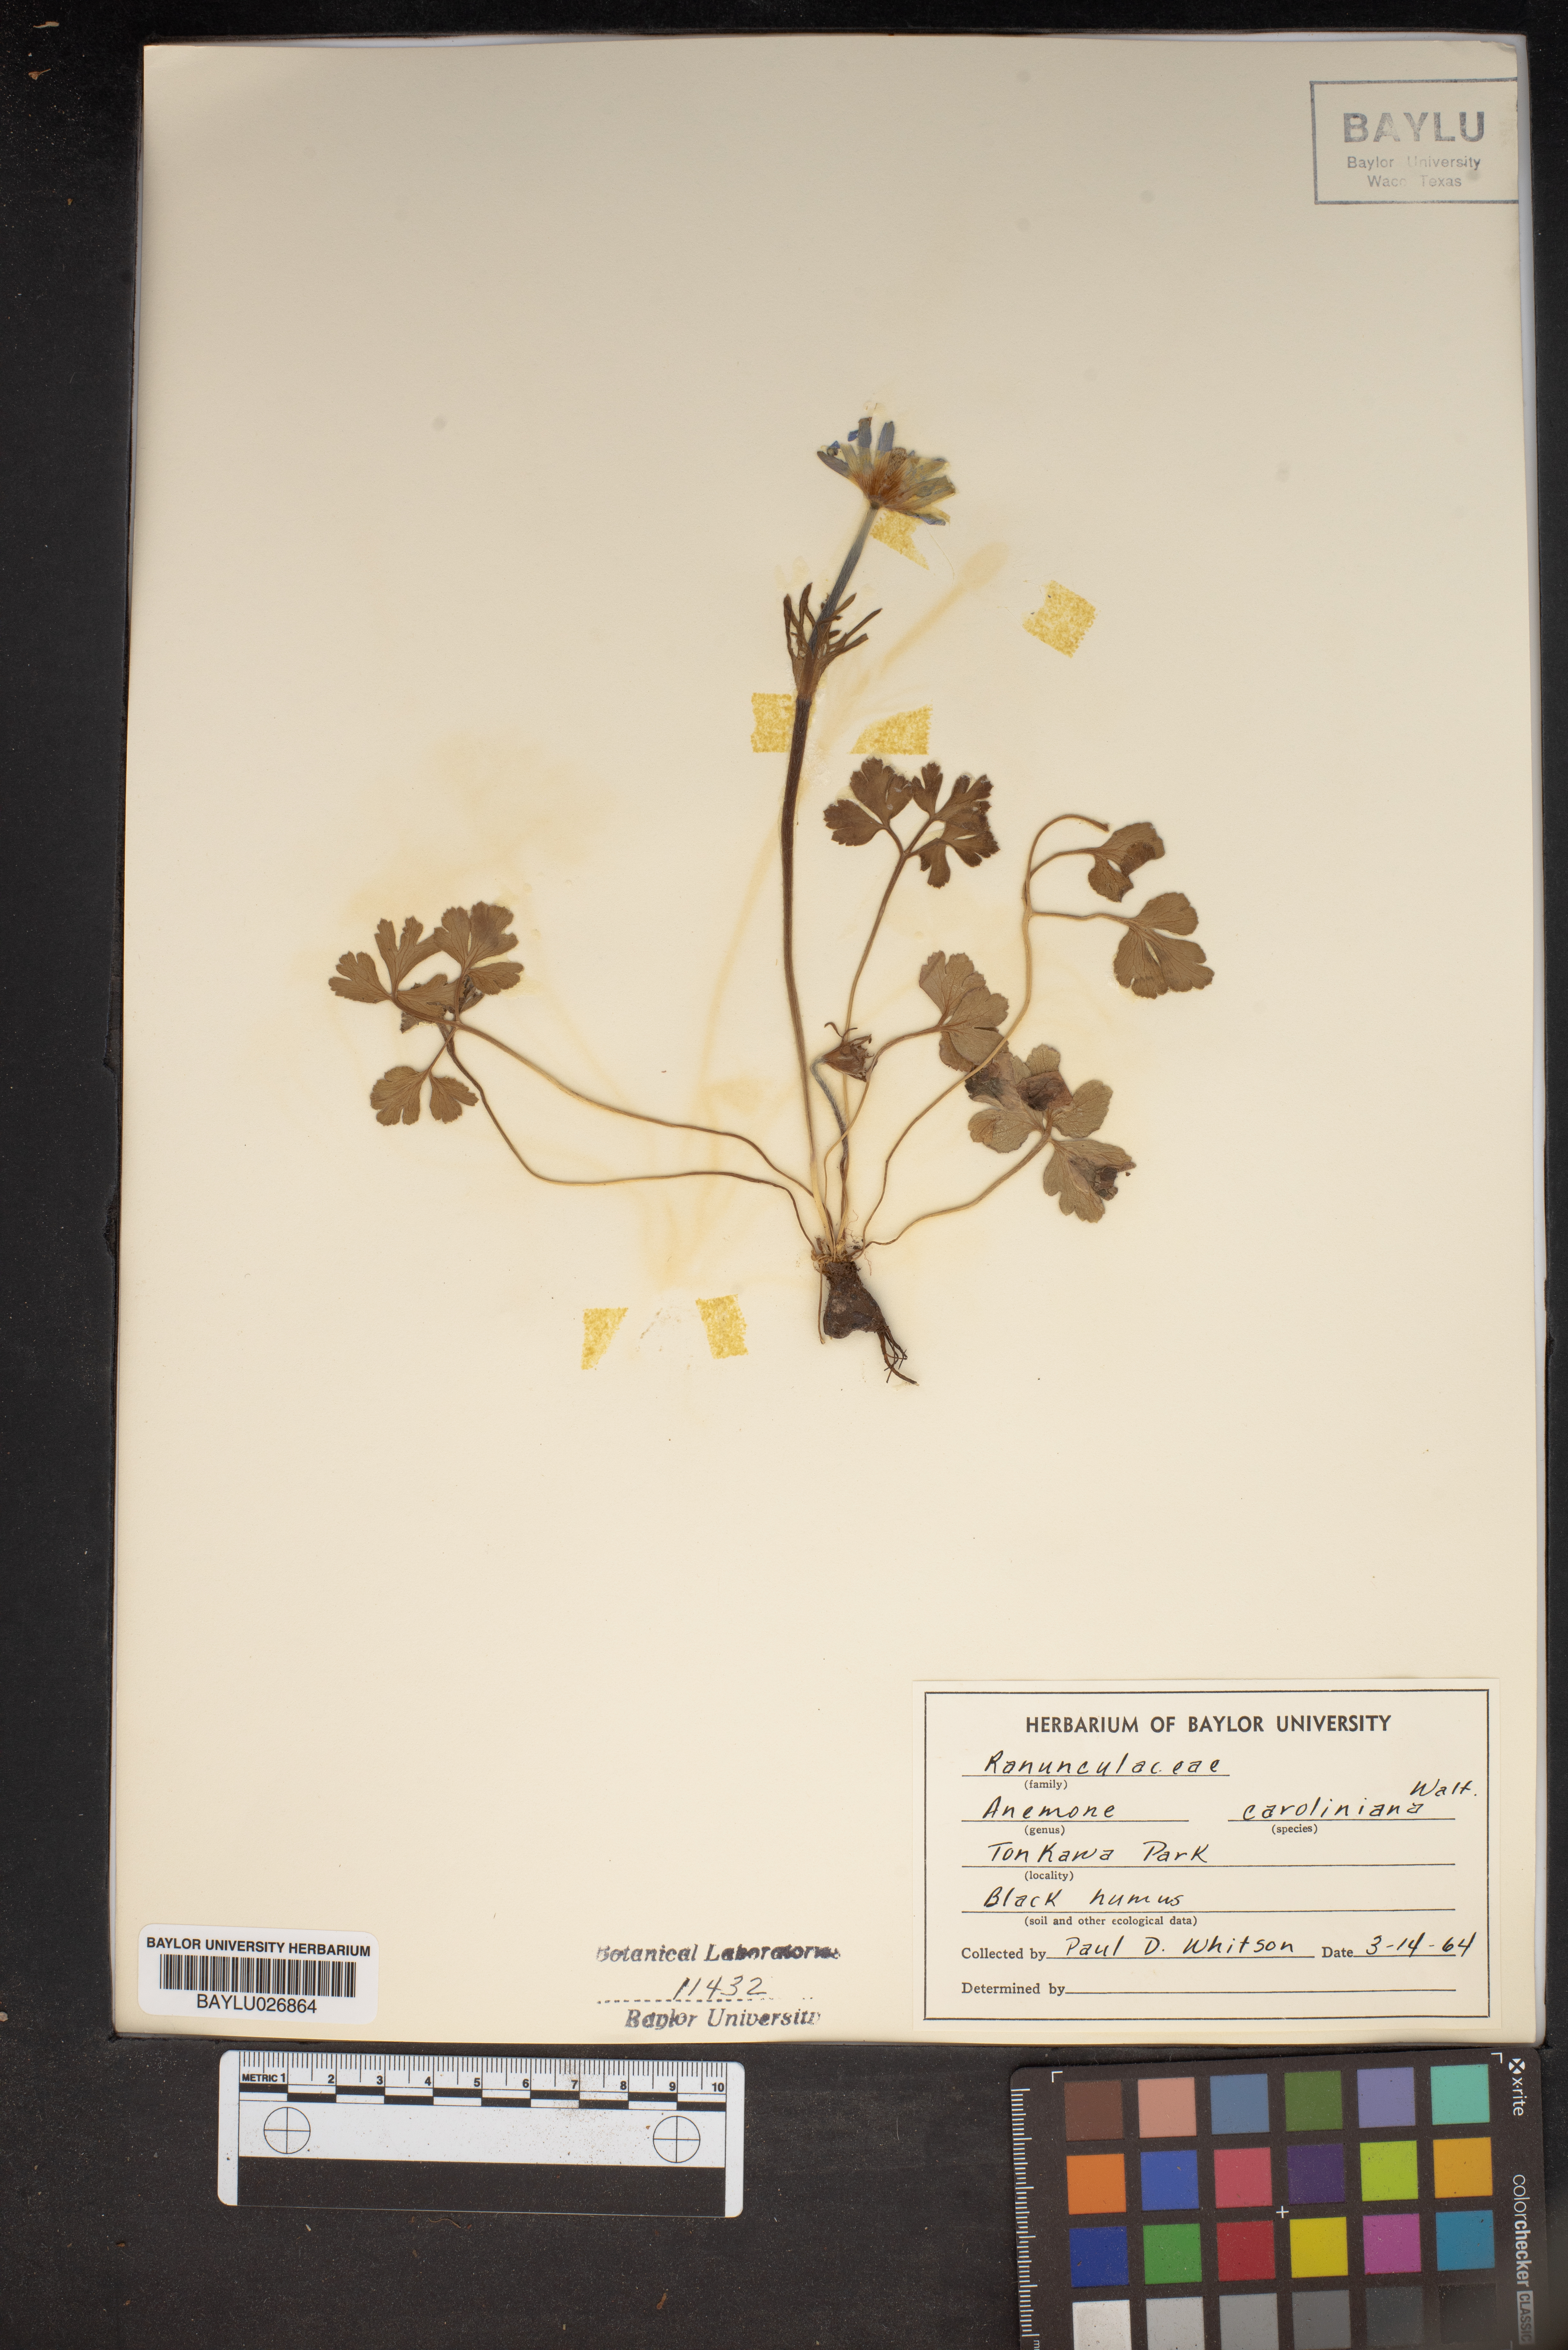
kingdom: Plantae
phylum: Tracheophyta
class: Magnoliopsida
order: Ranunculales
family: Ranunculaceae
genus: Anemone
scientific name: Anemone caroliniana
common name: Carolina anemone
